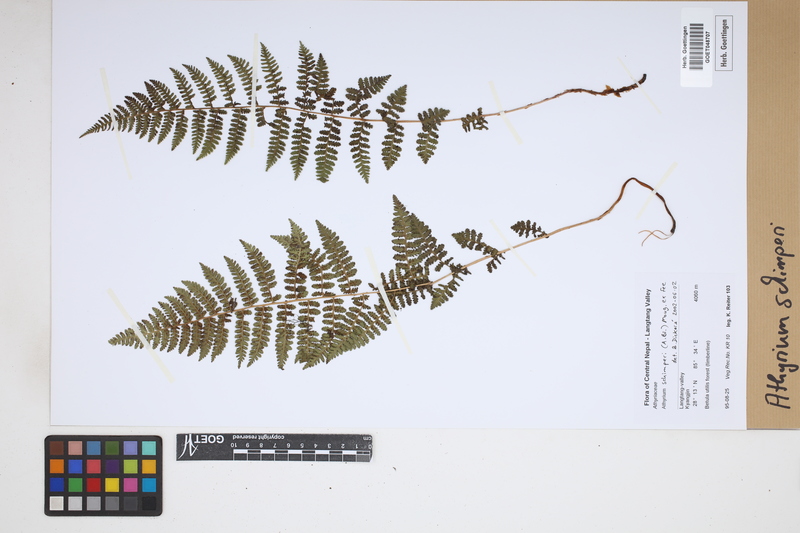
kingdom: Plantae
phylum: Tracheophyta
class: Polypodiopsida
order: Polypodiales
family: Athyriaceae
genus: Athyrium
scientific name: Athyrium schimperi
